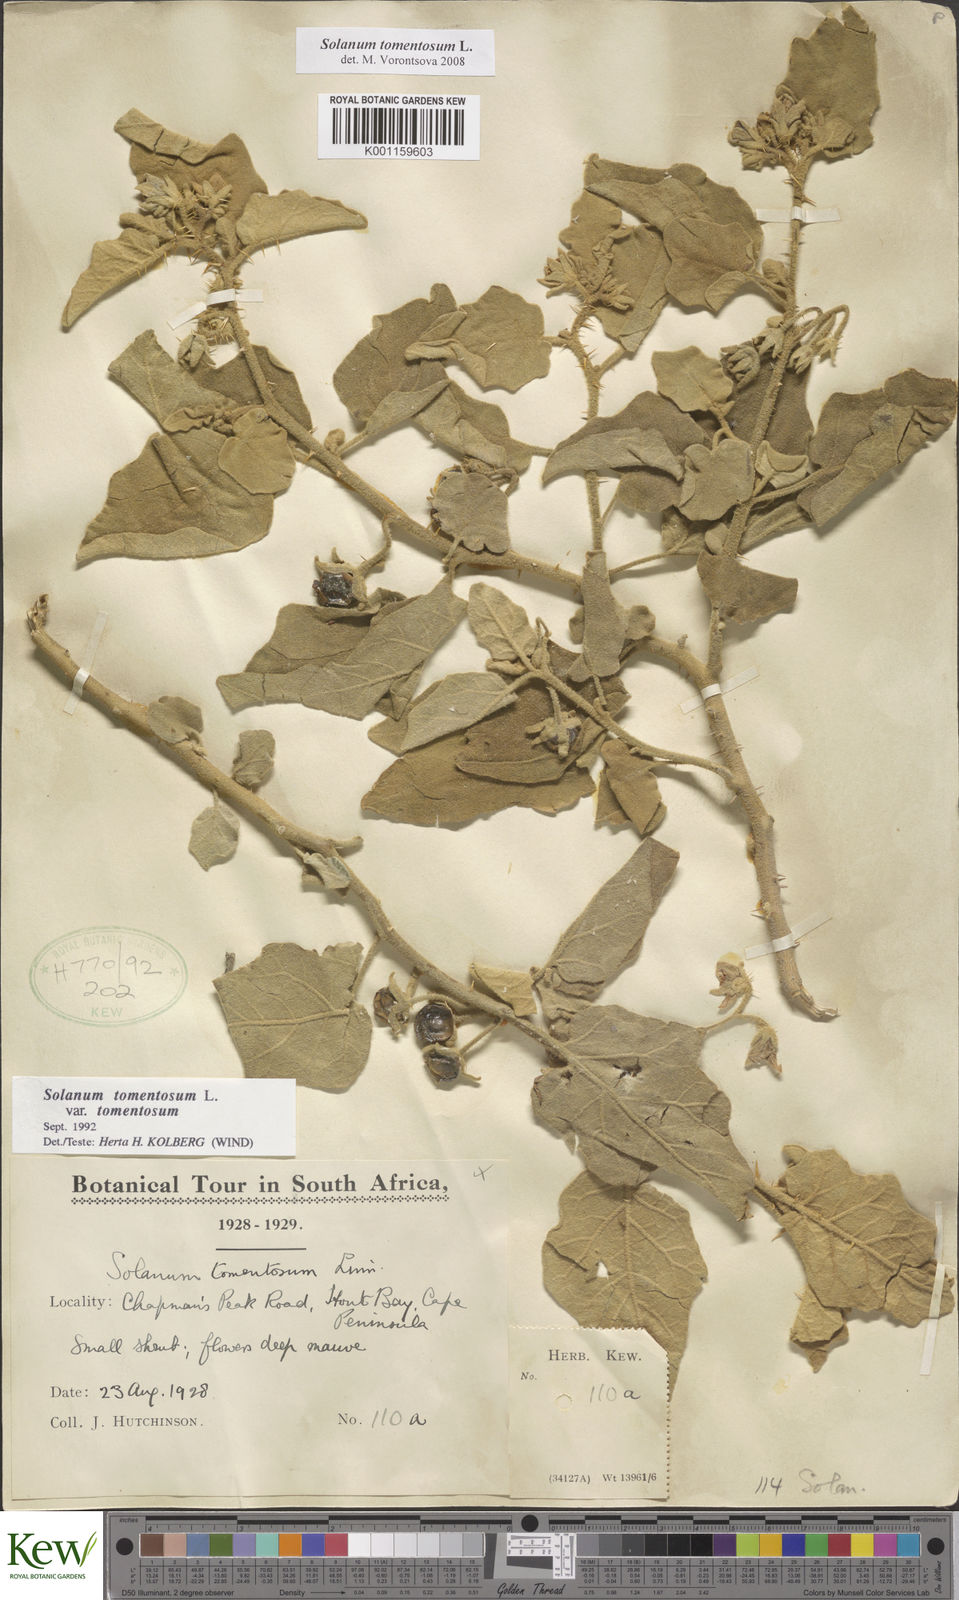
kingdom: Plantae
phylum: Tracheophyta
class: Magnoliopsida
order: Solanales
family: Solanaceae
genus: Solanum
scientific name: Solanum tomentosum
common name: Wild aubergine
